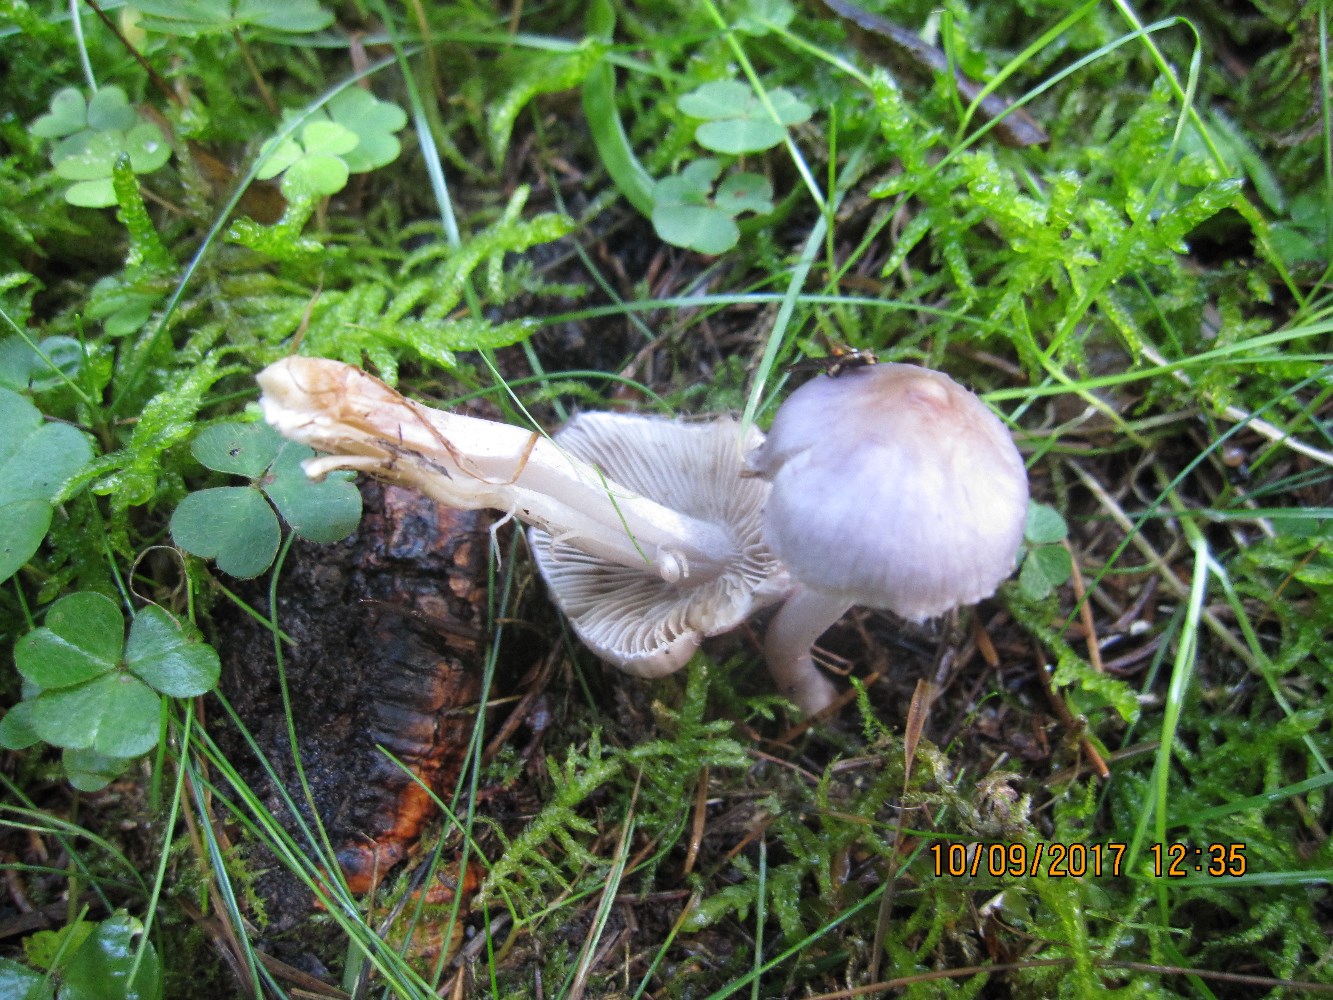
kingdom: Fungi
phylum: Basidiomycota
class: Agaricomycetes
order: Agaricales
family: Inocybaceae
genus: Inocybe
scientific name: Inocybe geophylla
